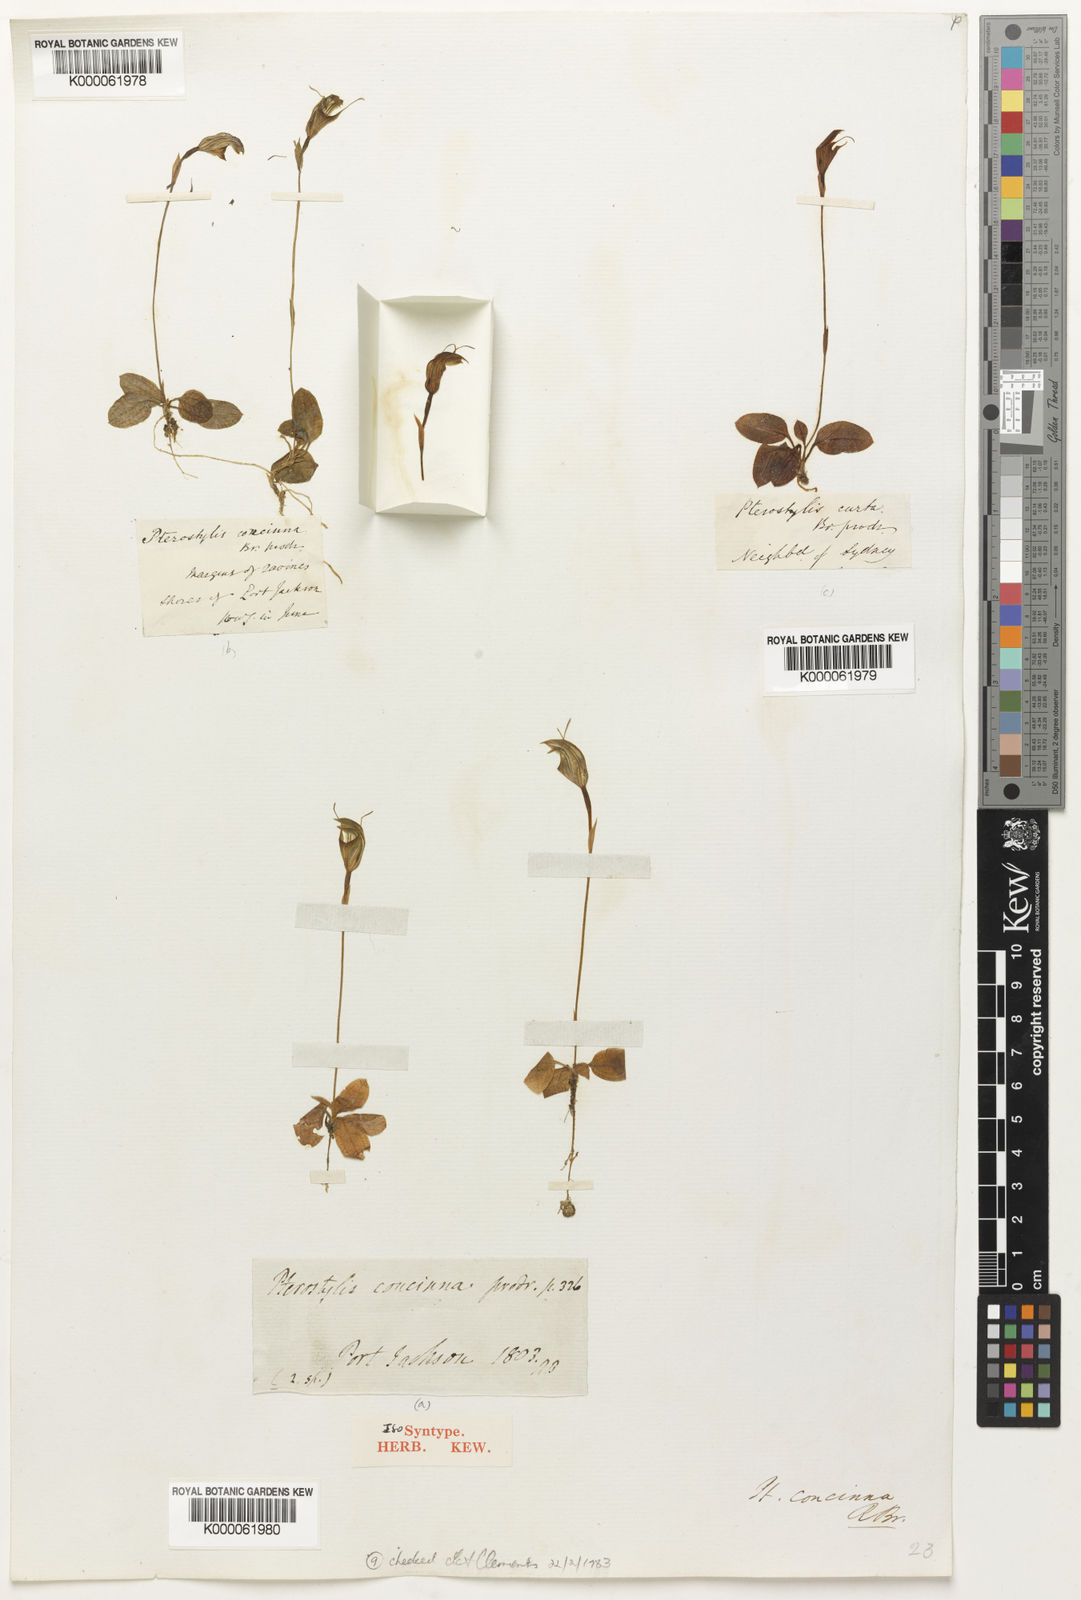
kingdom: Plantae
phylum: Tracheophyta
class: Liliopsida
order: Asparagales
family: Orchidaceae
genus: Pterostylis
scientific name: Pterostylis concinna
